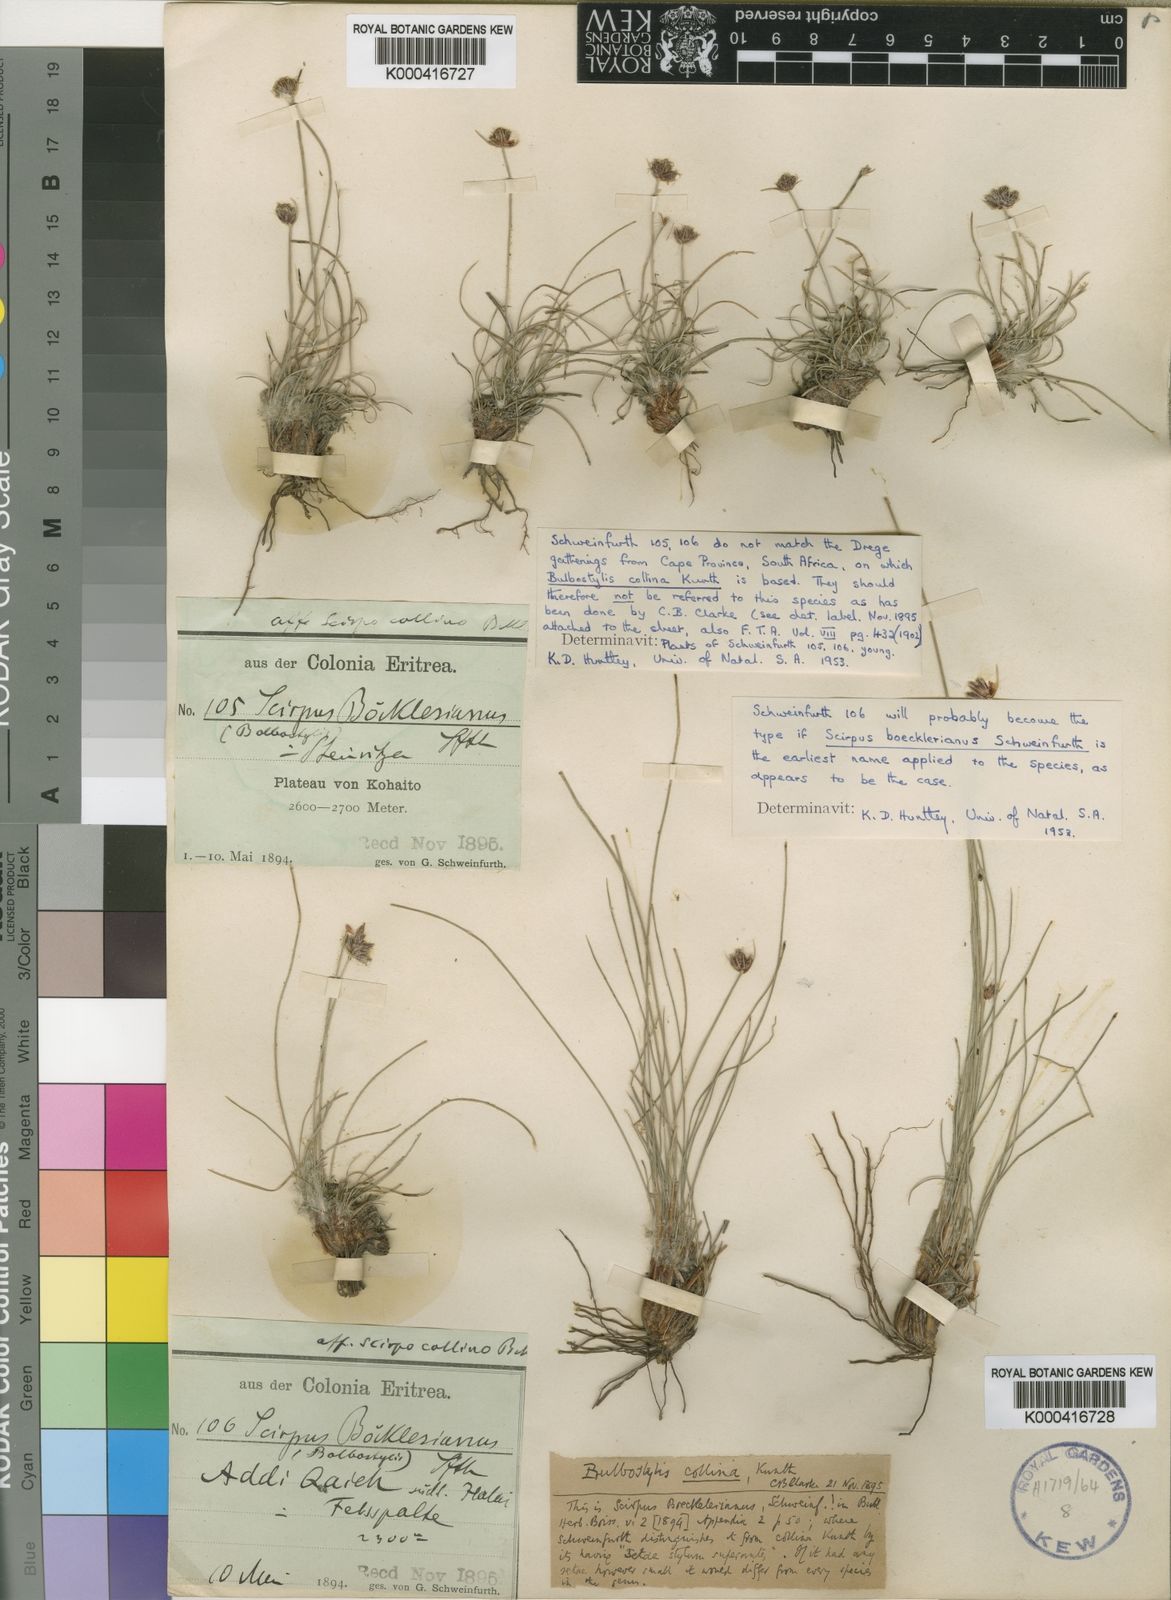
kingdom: Plantae
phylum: Tracheophyta
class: Liliopsida
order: Poales
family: Cyperaceae
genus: Bulbostylis
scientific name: Bulbostylis boeckeleriana
